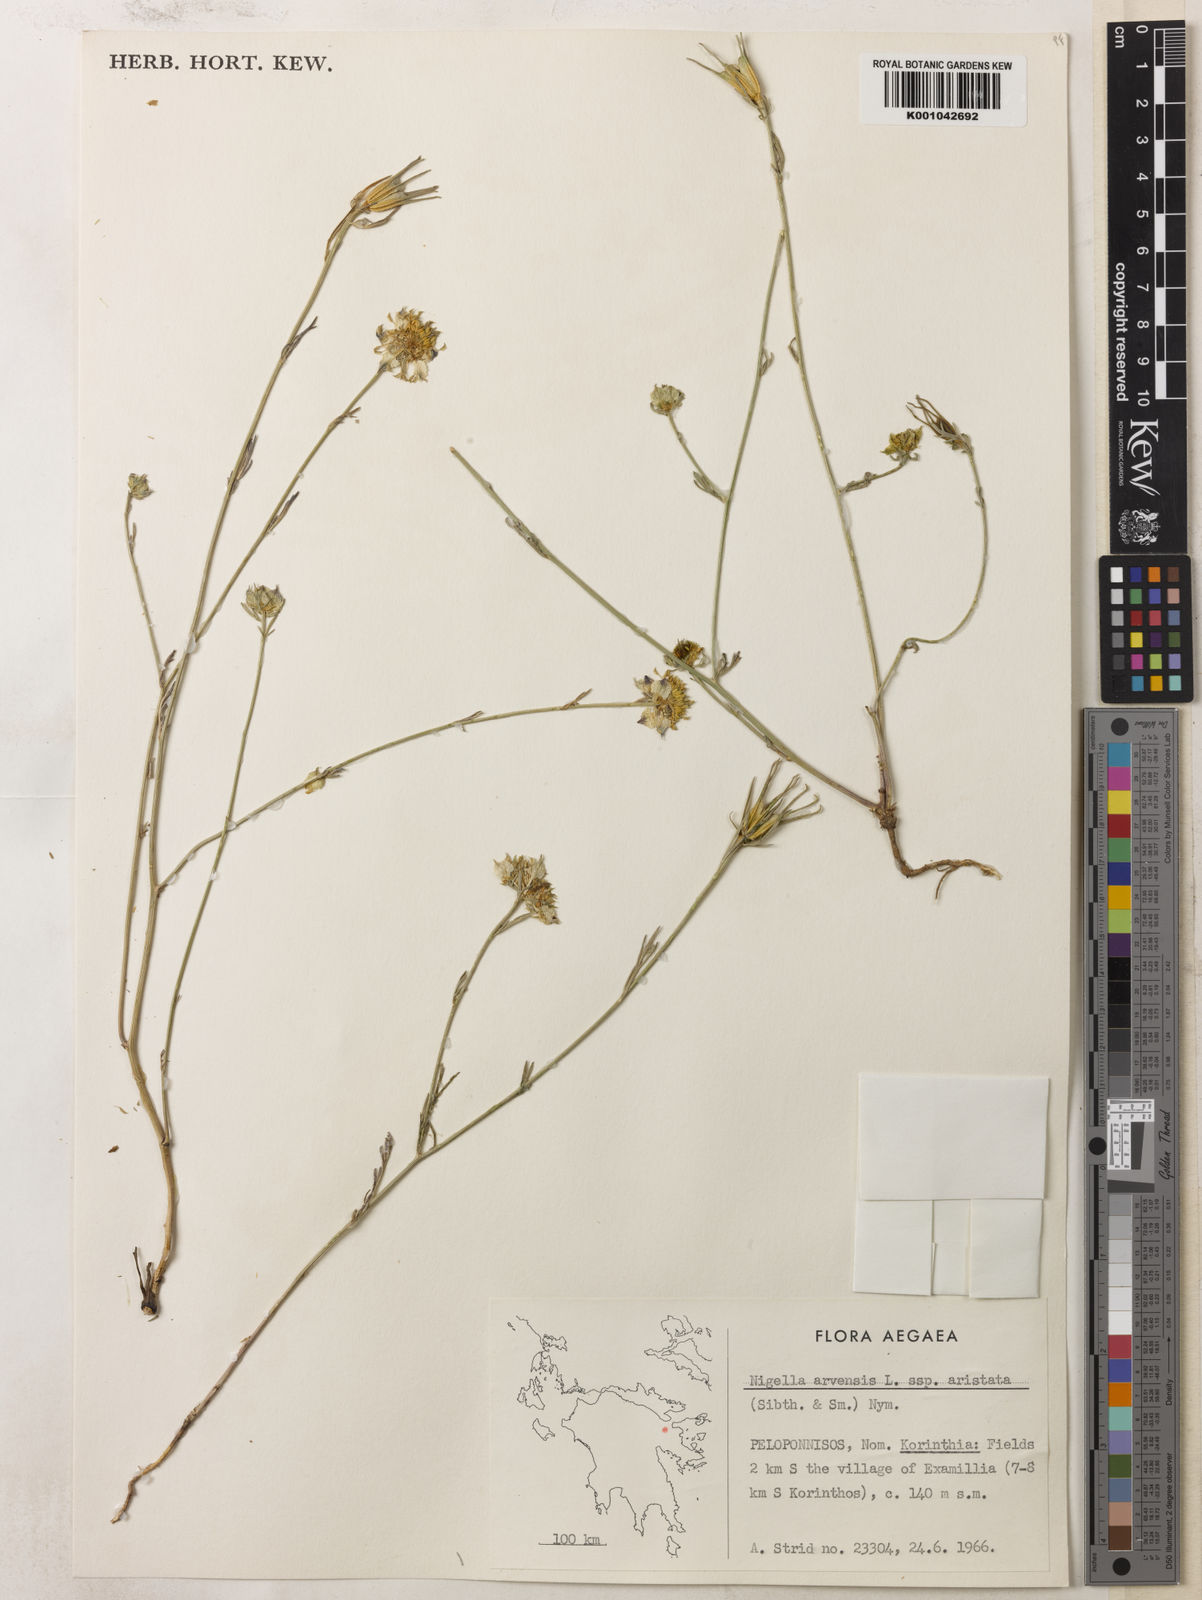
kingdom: Plantae
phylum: Tracheophyta
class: Magnoliopsida
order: Ranunculales
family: Ranunculaceae
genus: Nigella
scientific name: Nigella arvensis
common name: Wild fennel-flower
